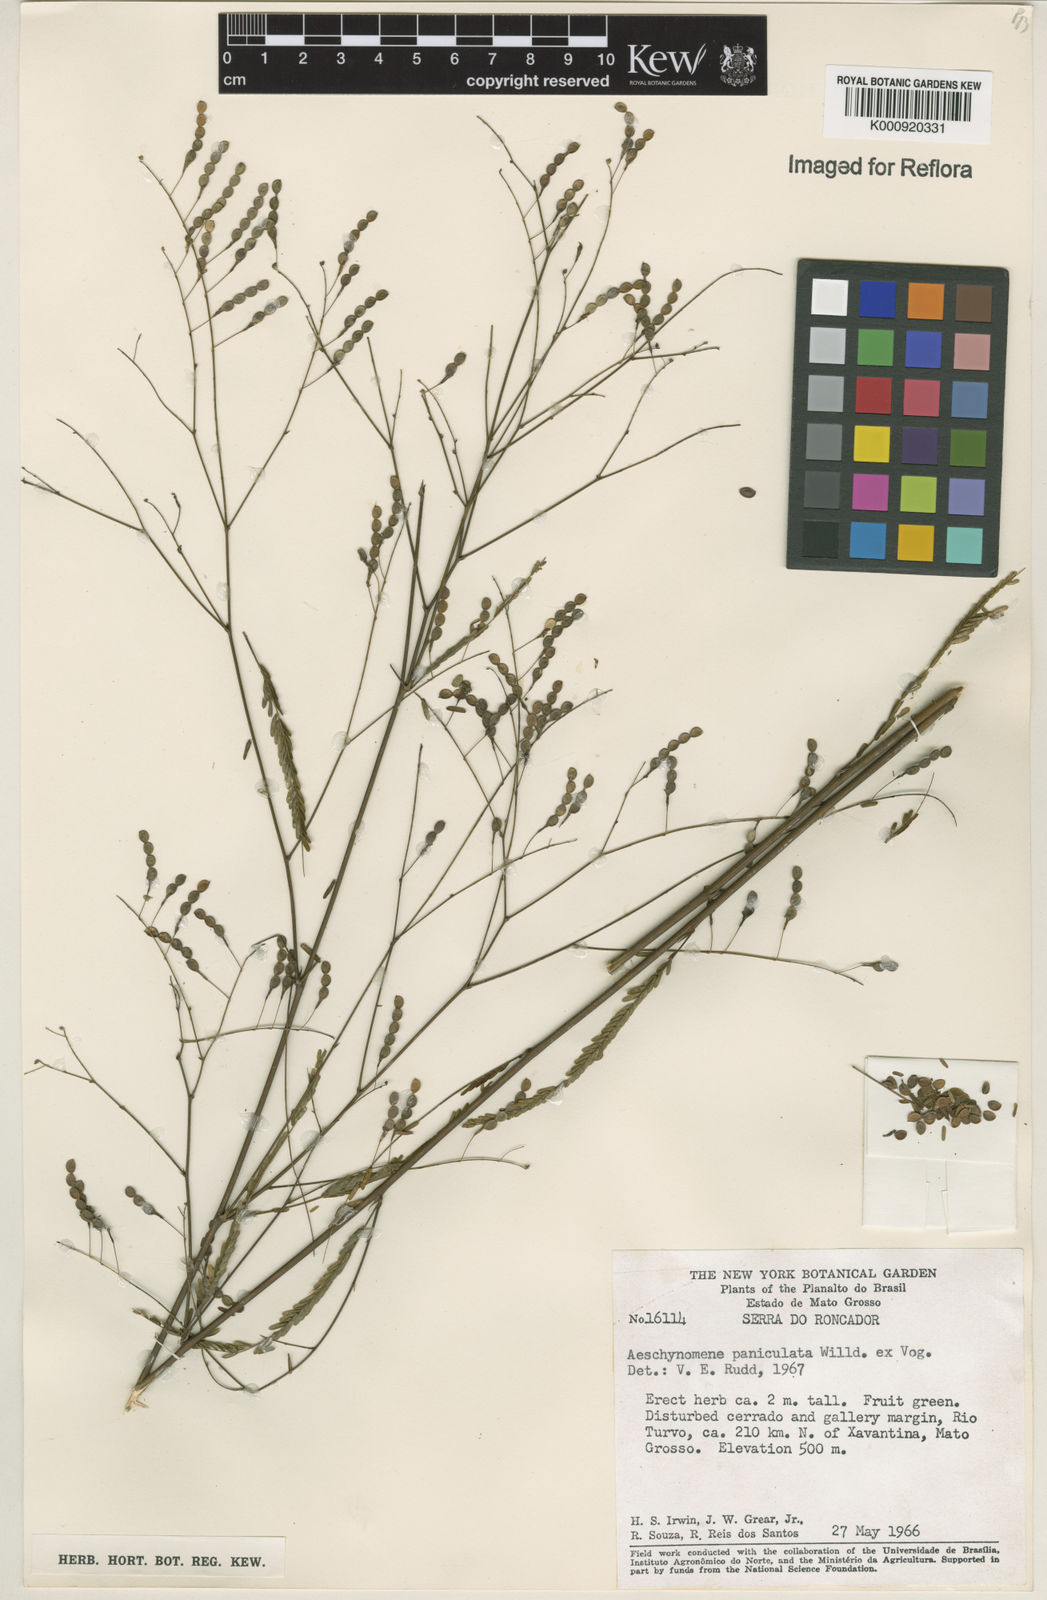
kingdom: Plantae
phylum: Tracheophyta
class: Magnoliopsida
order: Fabales
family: Fabaceae
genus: Ctenodon
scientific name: Ctenodon paniculatus
